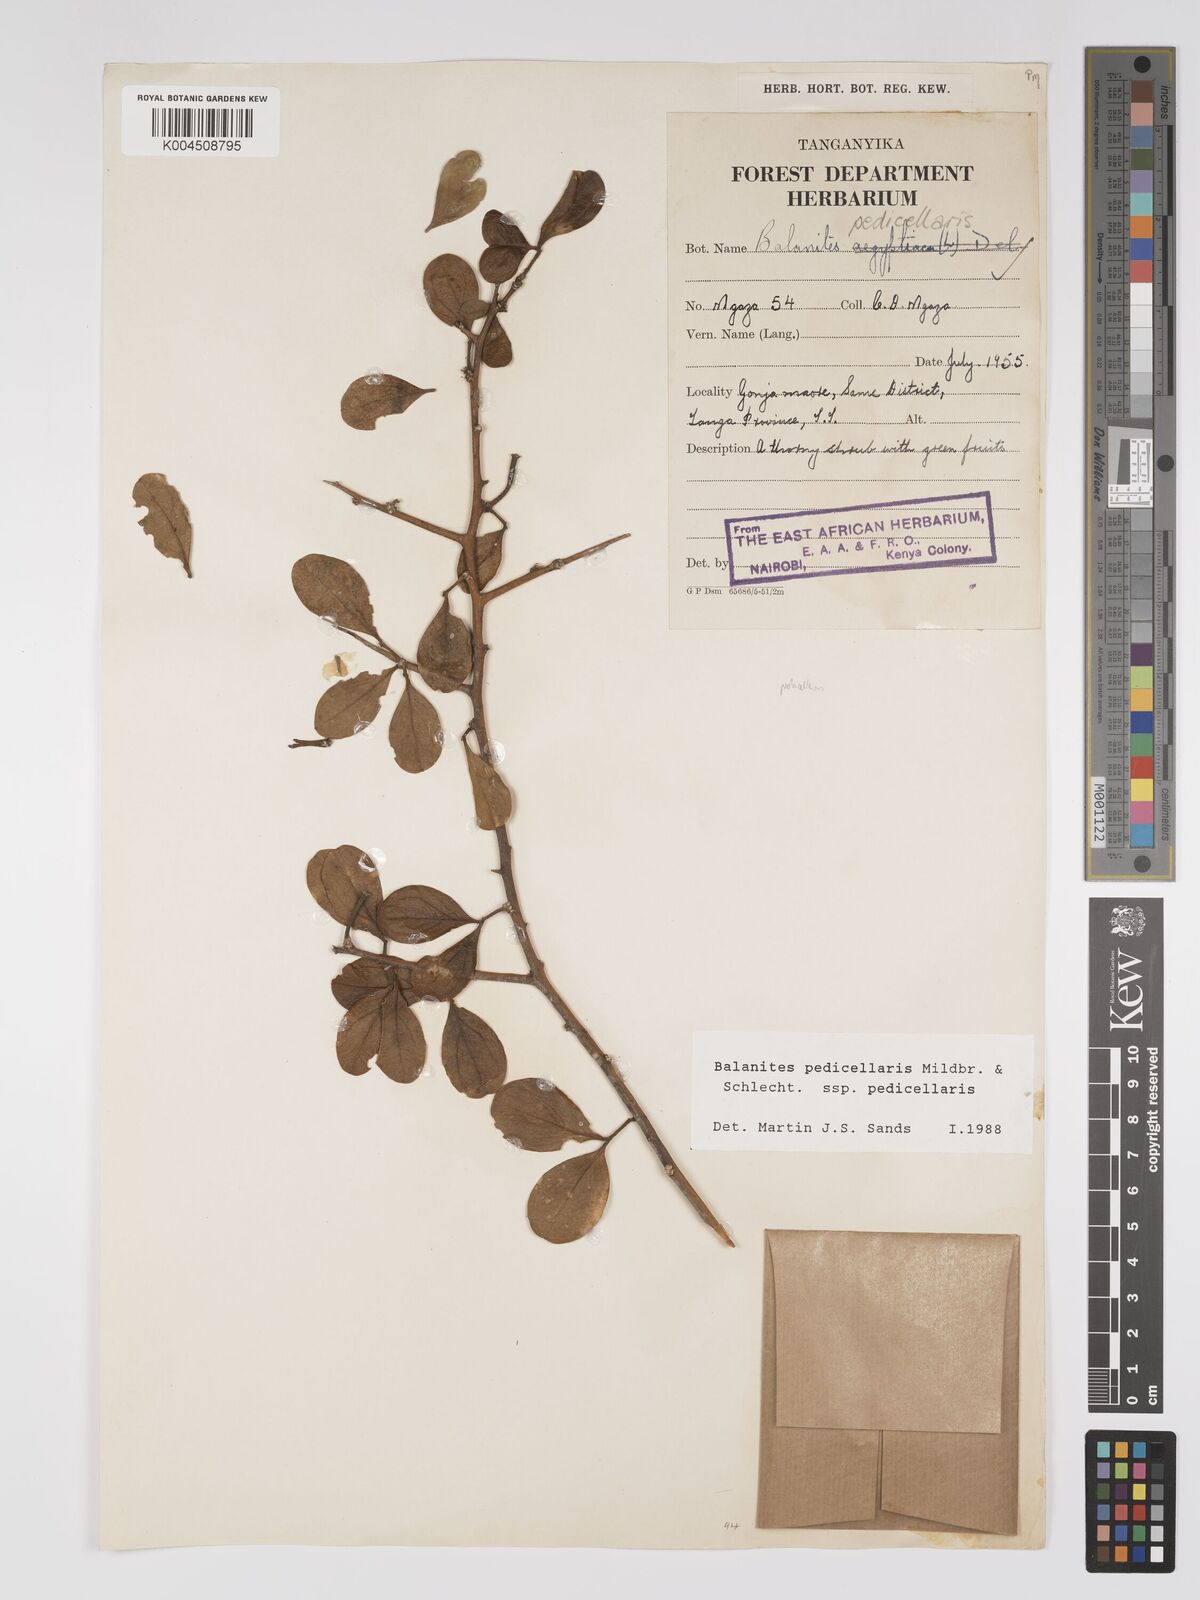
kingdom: Plantae
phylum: Tracheophyta
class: Magnoliopsida
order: Zygophyllales
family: Zygophyllaceae
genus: Balanites
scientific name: Balanites pedicellaris
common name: Small green-thorn
